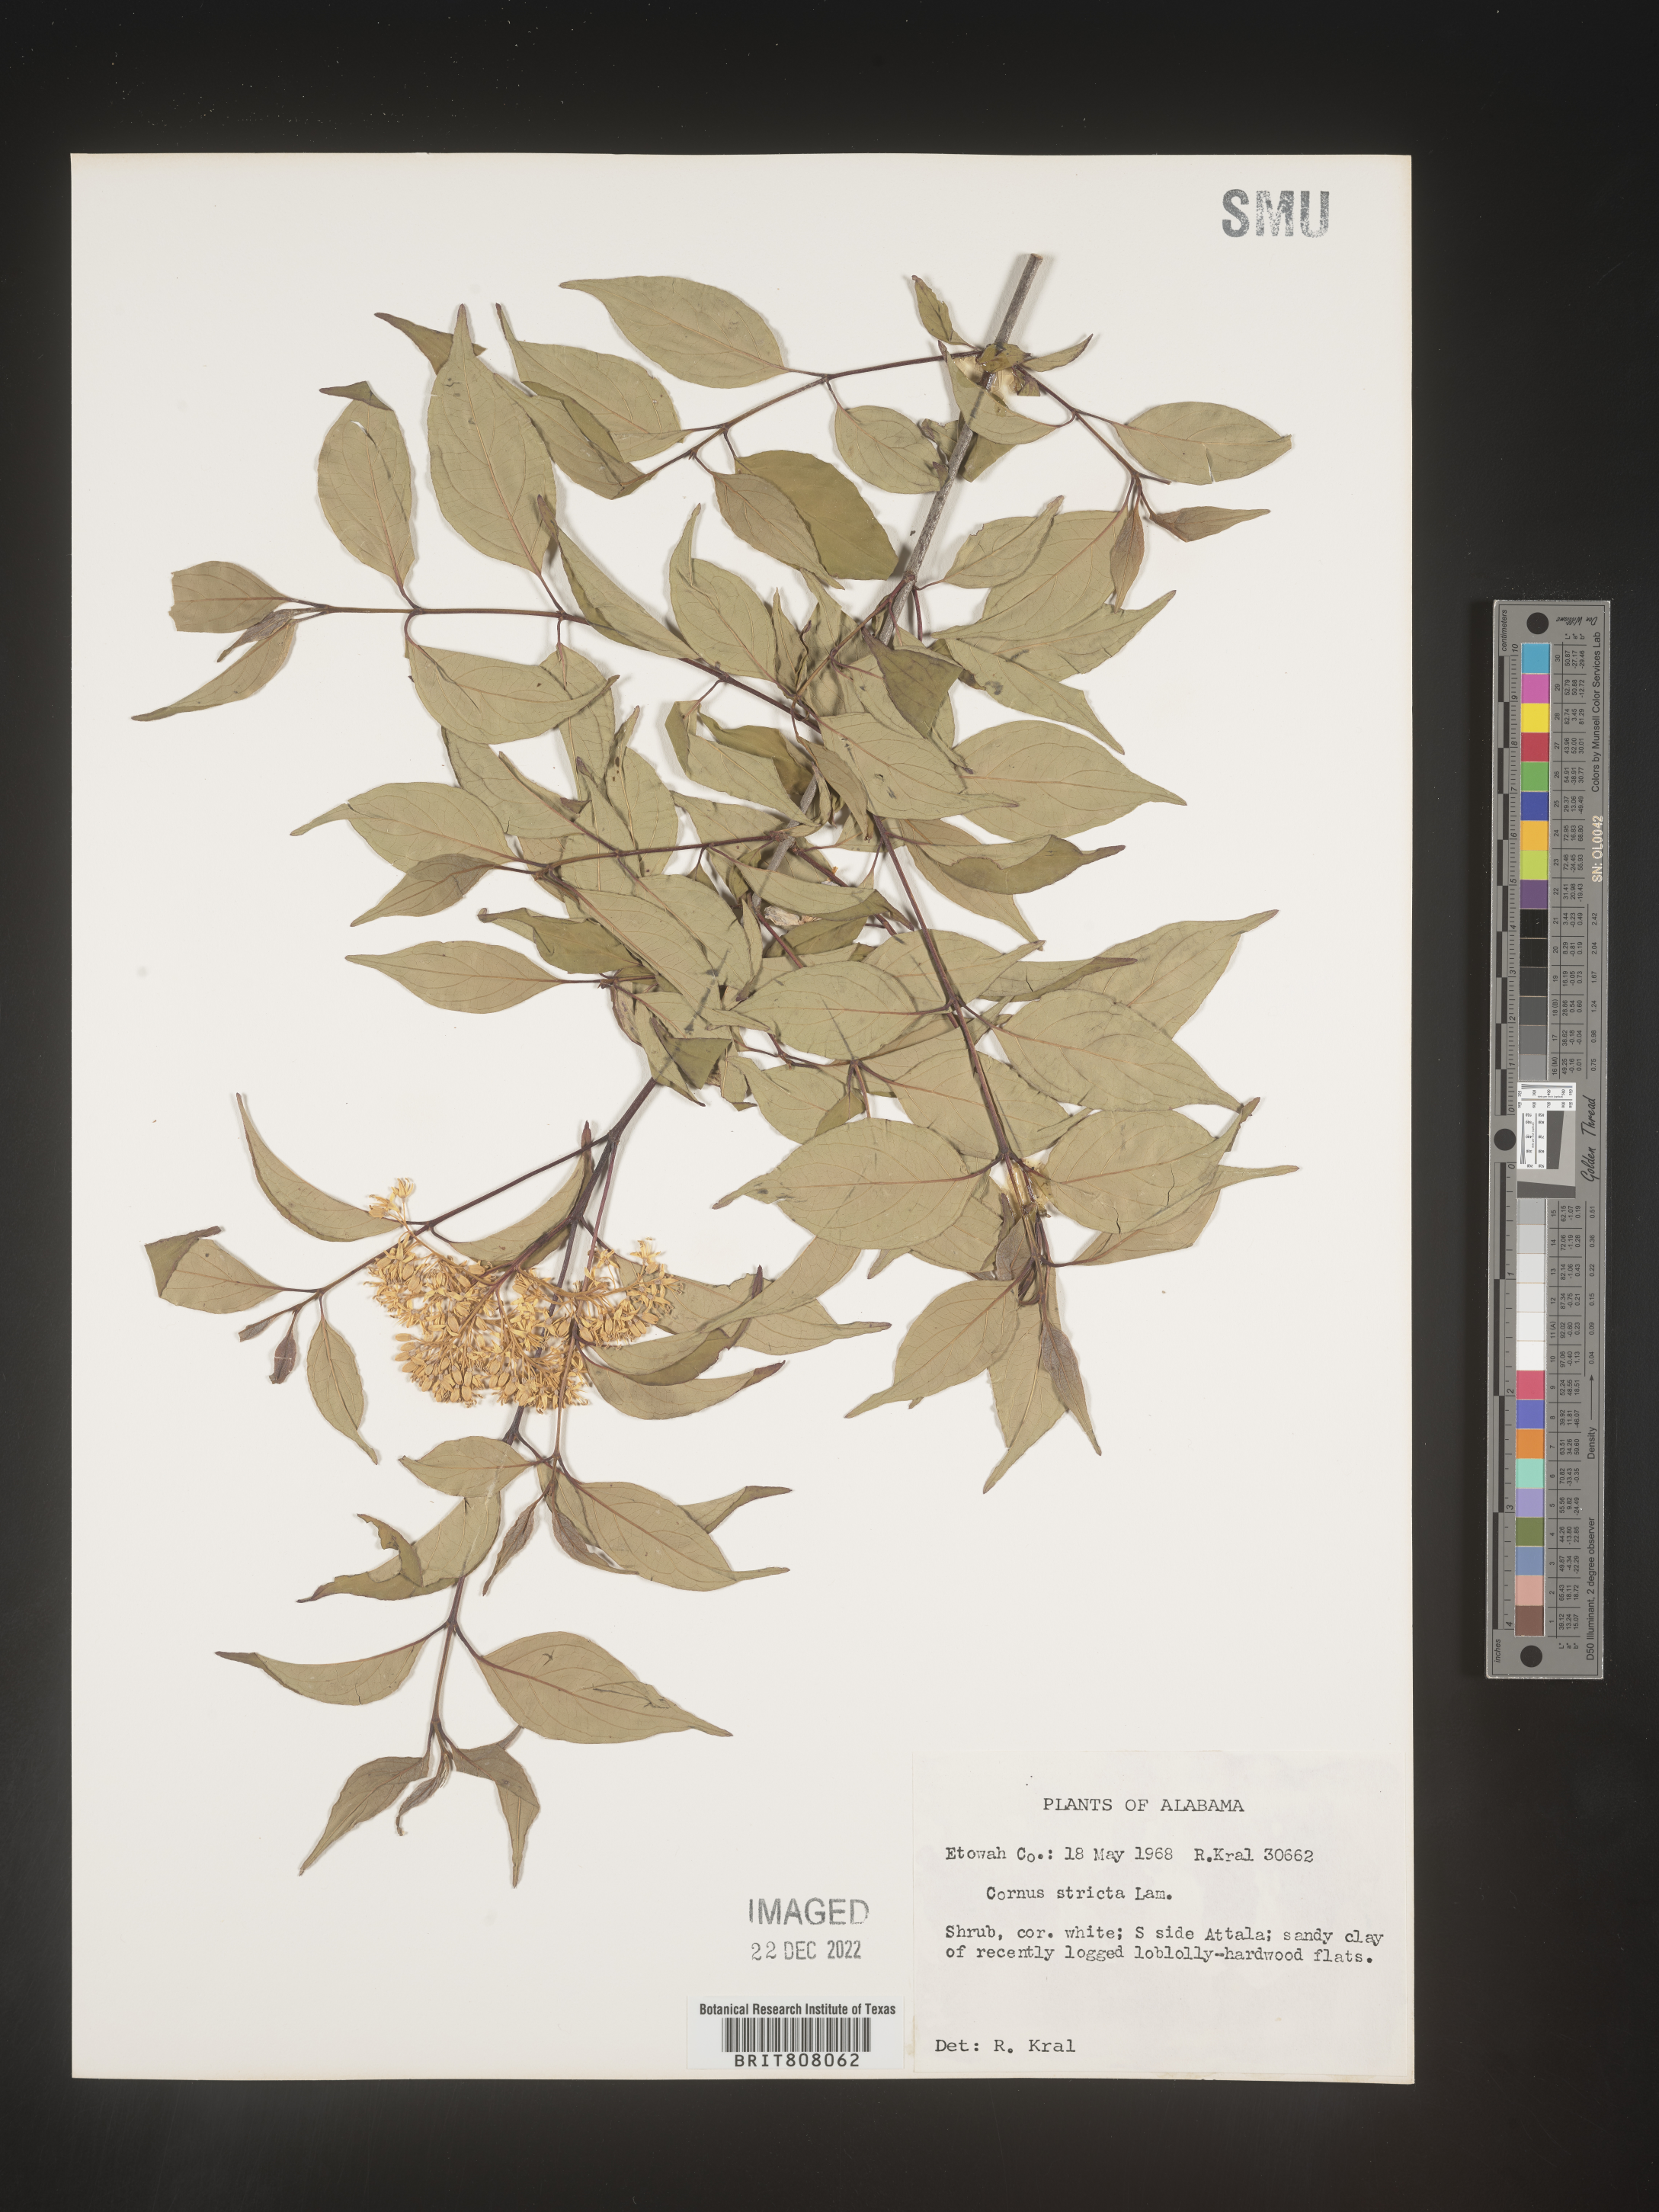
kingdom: Plantae
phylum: Tracheophyta
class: Magnoliopsida
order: Cornales
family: Cornaceae
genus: Cornus
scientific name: Cornus foemina
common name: Swamp dogwood
